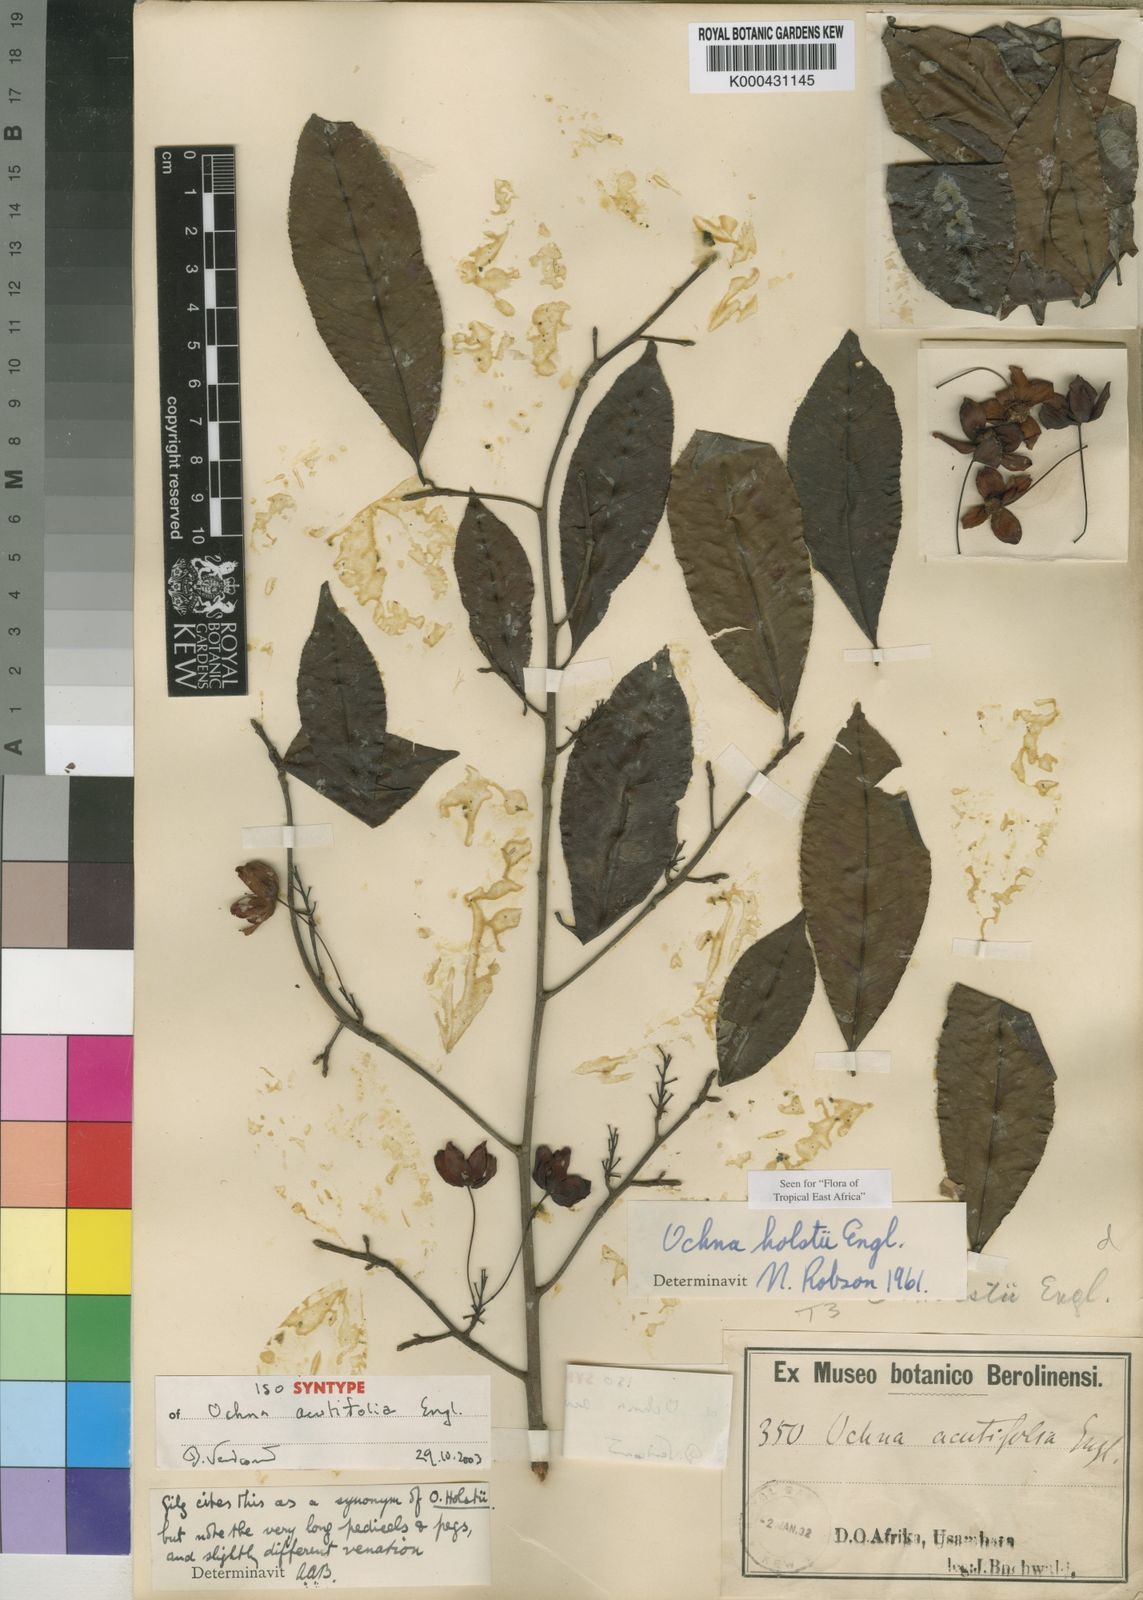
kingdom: Plantae
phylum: Tracheophyta
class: Magnoliopsida
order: Malpighiales
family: Ochnaceae
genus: Ochna
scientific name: Ochna holstii
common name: Red ironwood
